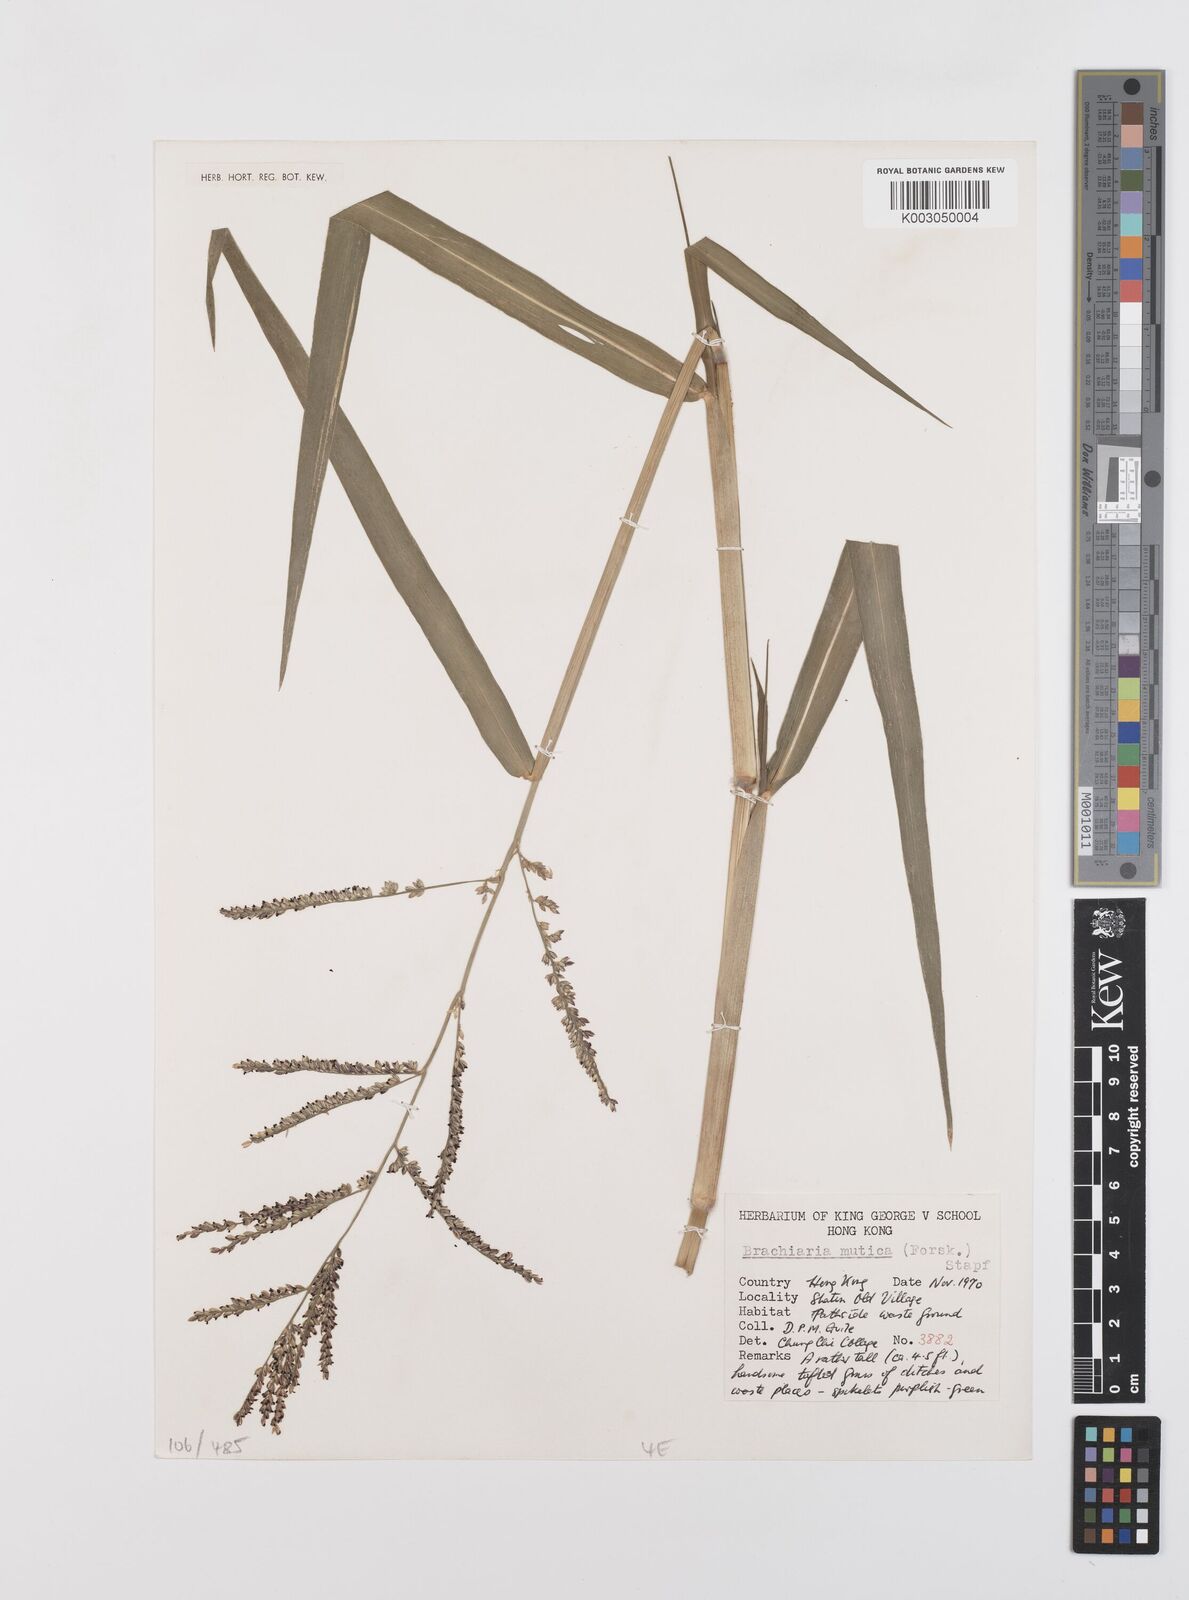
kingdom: Plantae
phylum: Tracheophyta
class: Liliopsida
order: Poales
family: Poaceae
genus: Urochloa
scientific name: Urochloa mutica
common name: Para grass
